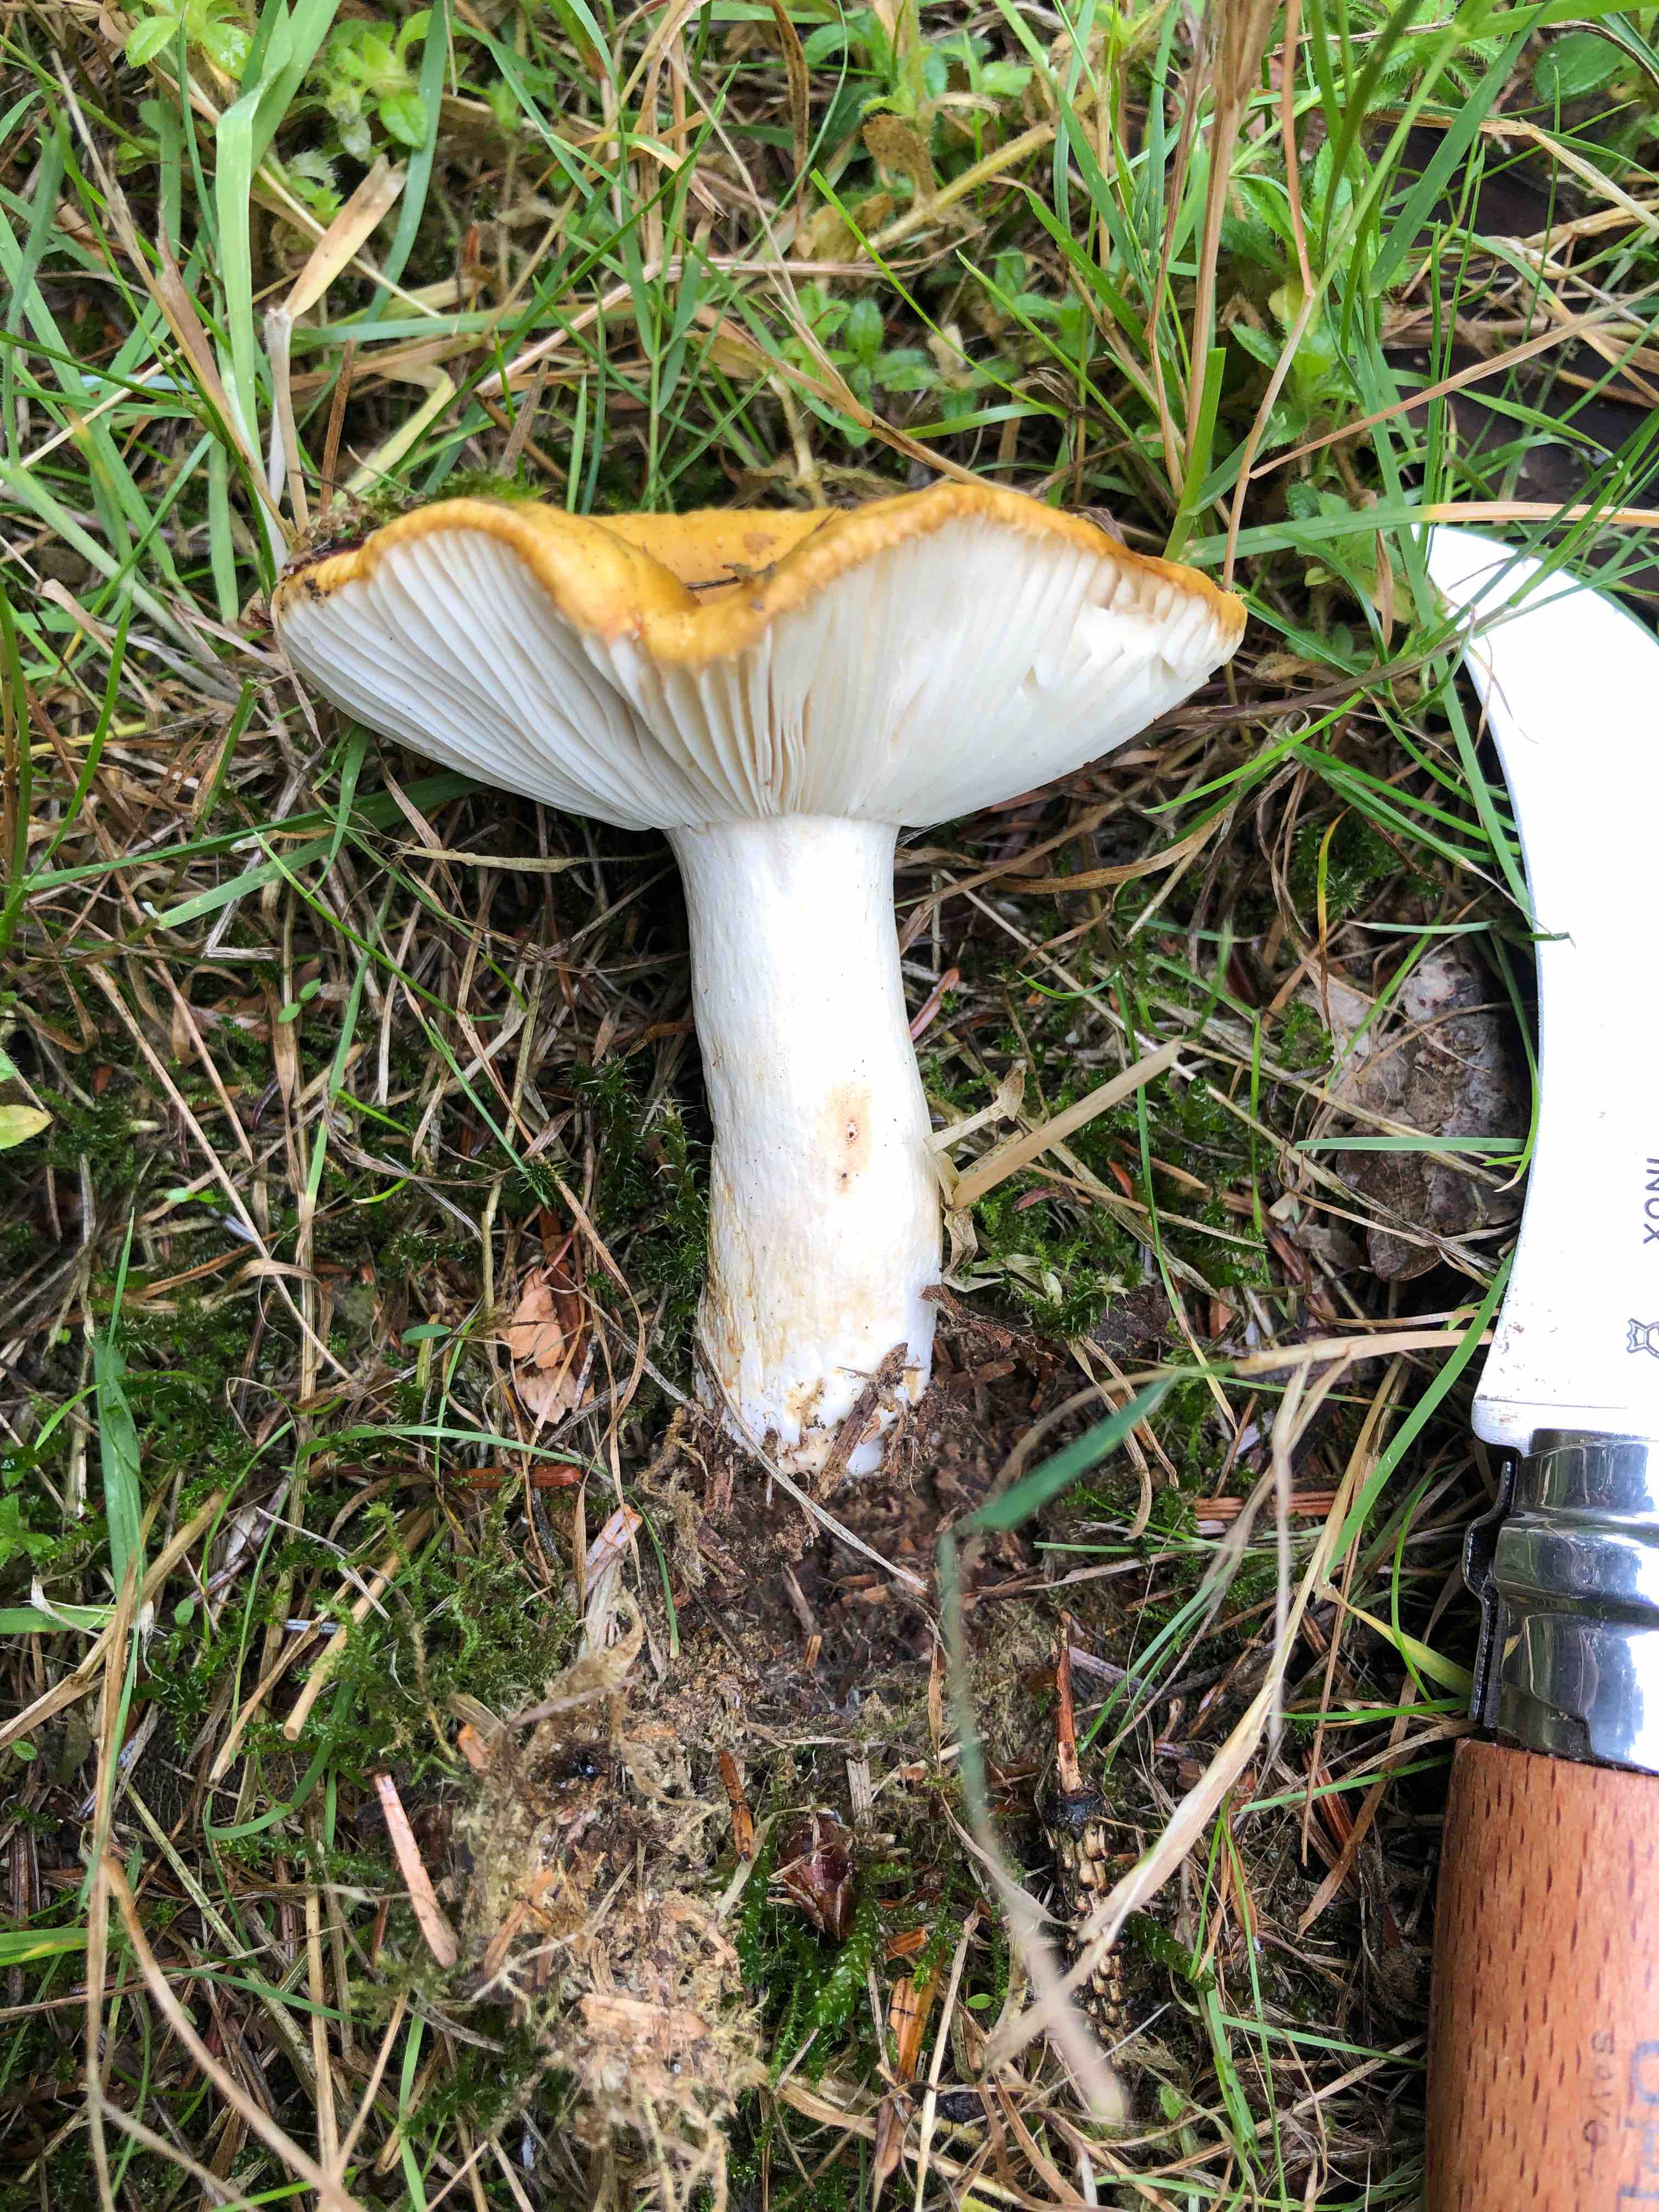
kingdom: Fungi
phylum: Basidiomycota
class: Agaricomycetes
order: Russulales
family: Russulaceae
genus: Russula
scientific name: Russula ochroleuca
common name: okkergul skørhat
